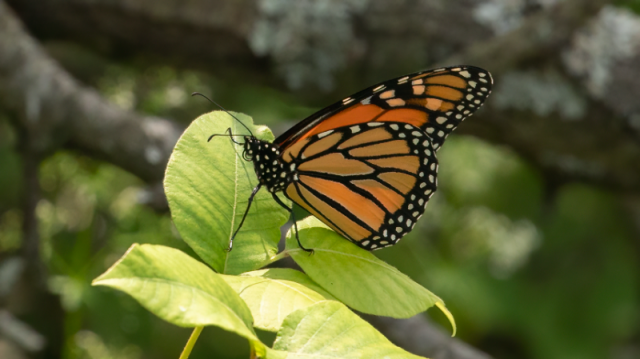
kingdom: Animalia
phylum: Arthropoda
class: Insecta
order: Lepidoptera
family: Nymphalidae
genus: Danaus
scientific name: Danaus plexippus
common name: Monarch
